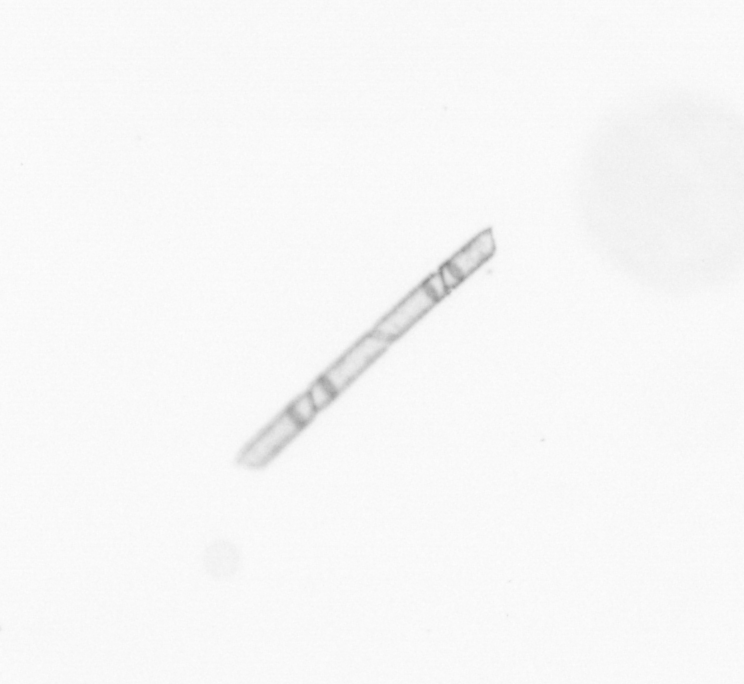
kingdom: Chromista
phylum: Ochrophyta
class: Bacillariophyceae
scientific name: Bacillariophyceae
